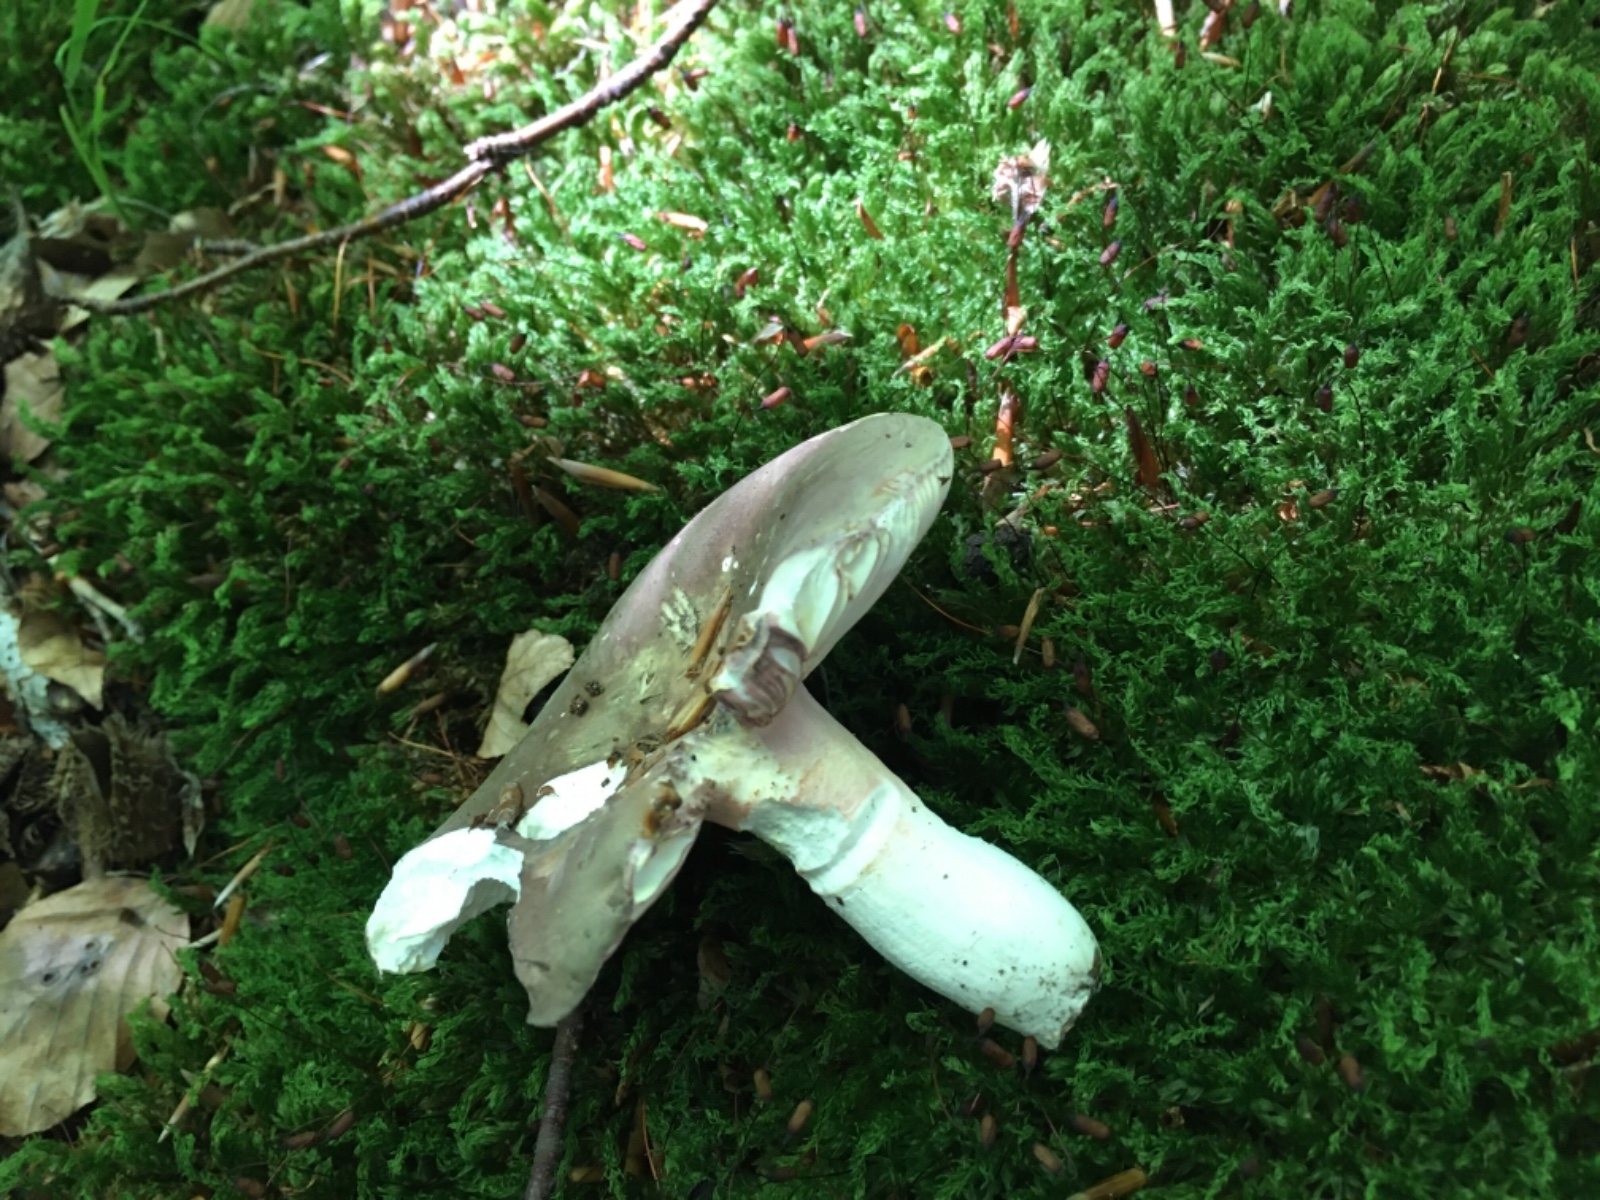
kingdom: Fungi
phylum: Basidiomycota
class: Agaricomycetes
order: Russulales
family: Russulaceae
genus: Russula
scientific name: Russula olivacea
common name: stor skørhat
